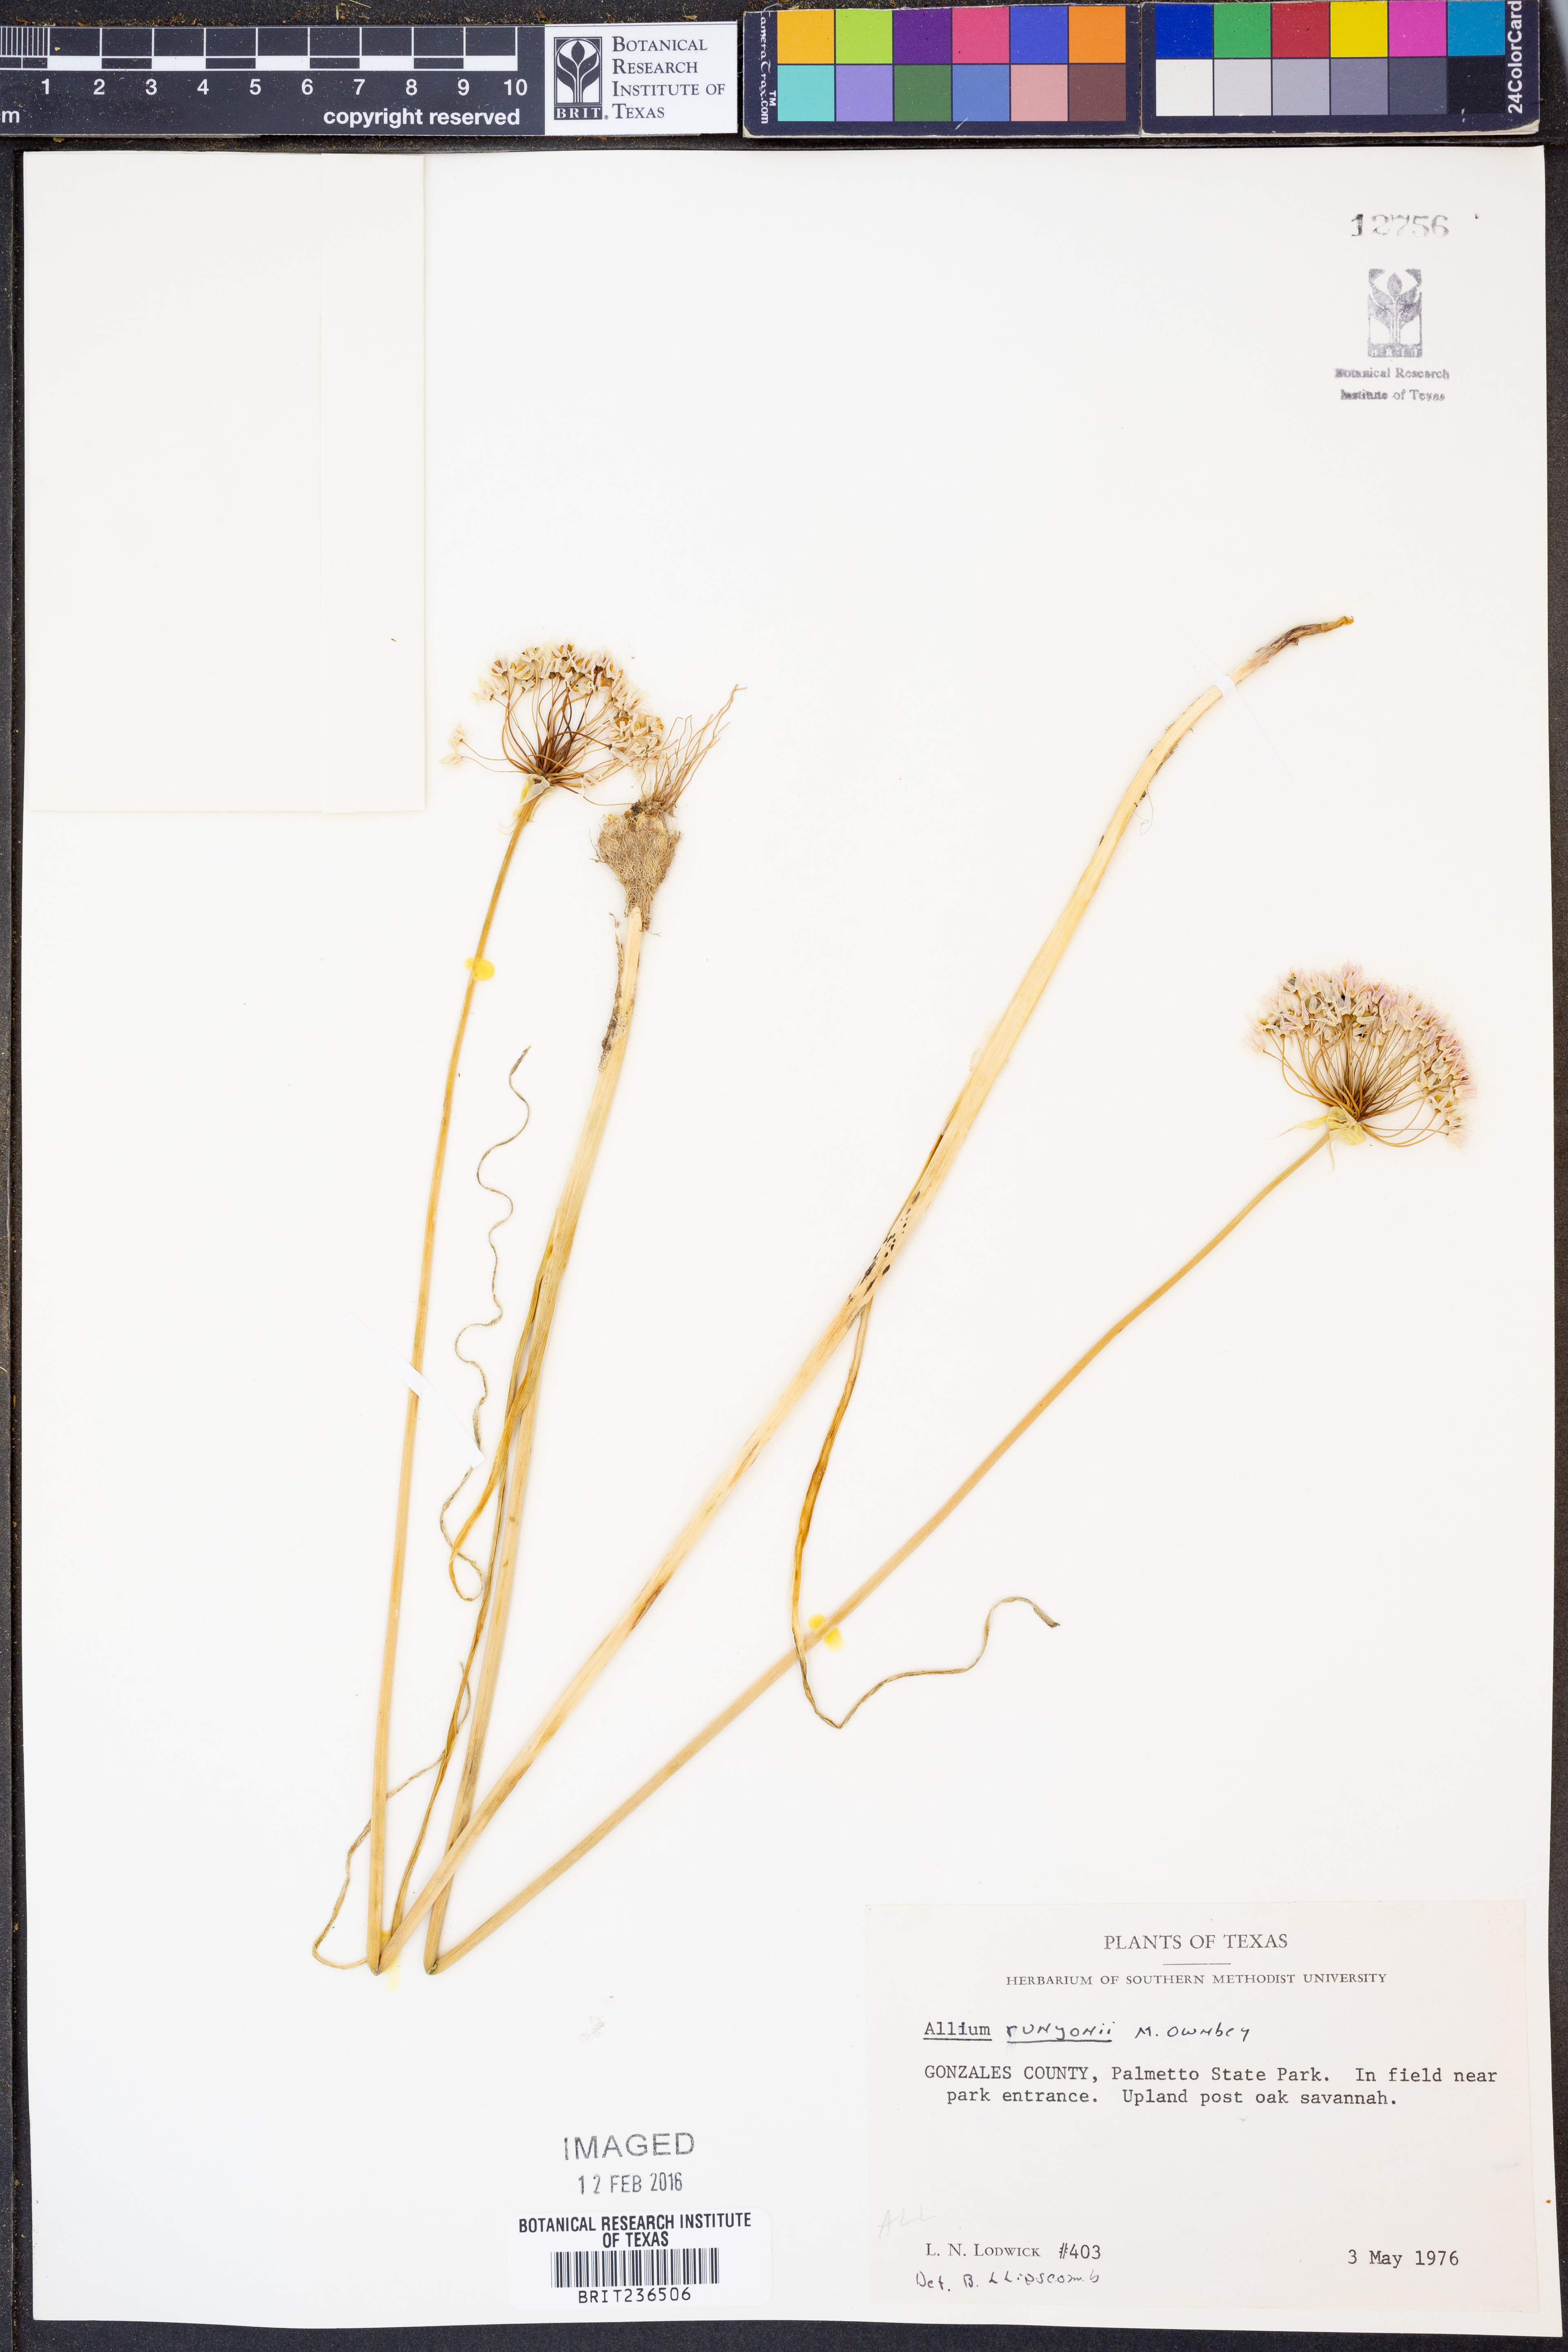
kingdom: Plantae
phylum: Tracheophyta
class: Liliopsida
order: Asparagales
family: Amaryllidaceae
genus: Allium
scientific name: Allium runyonii
